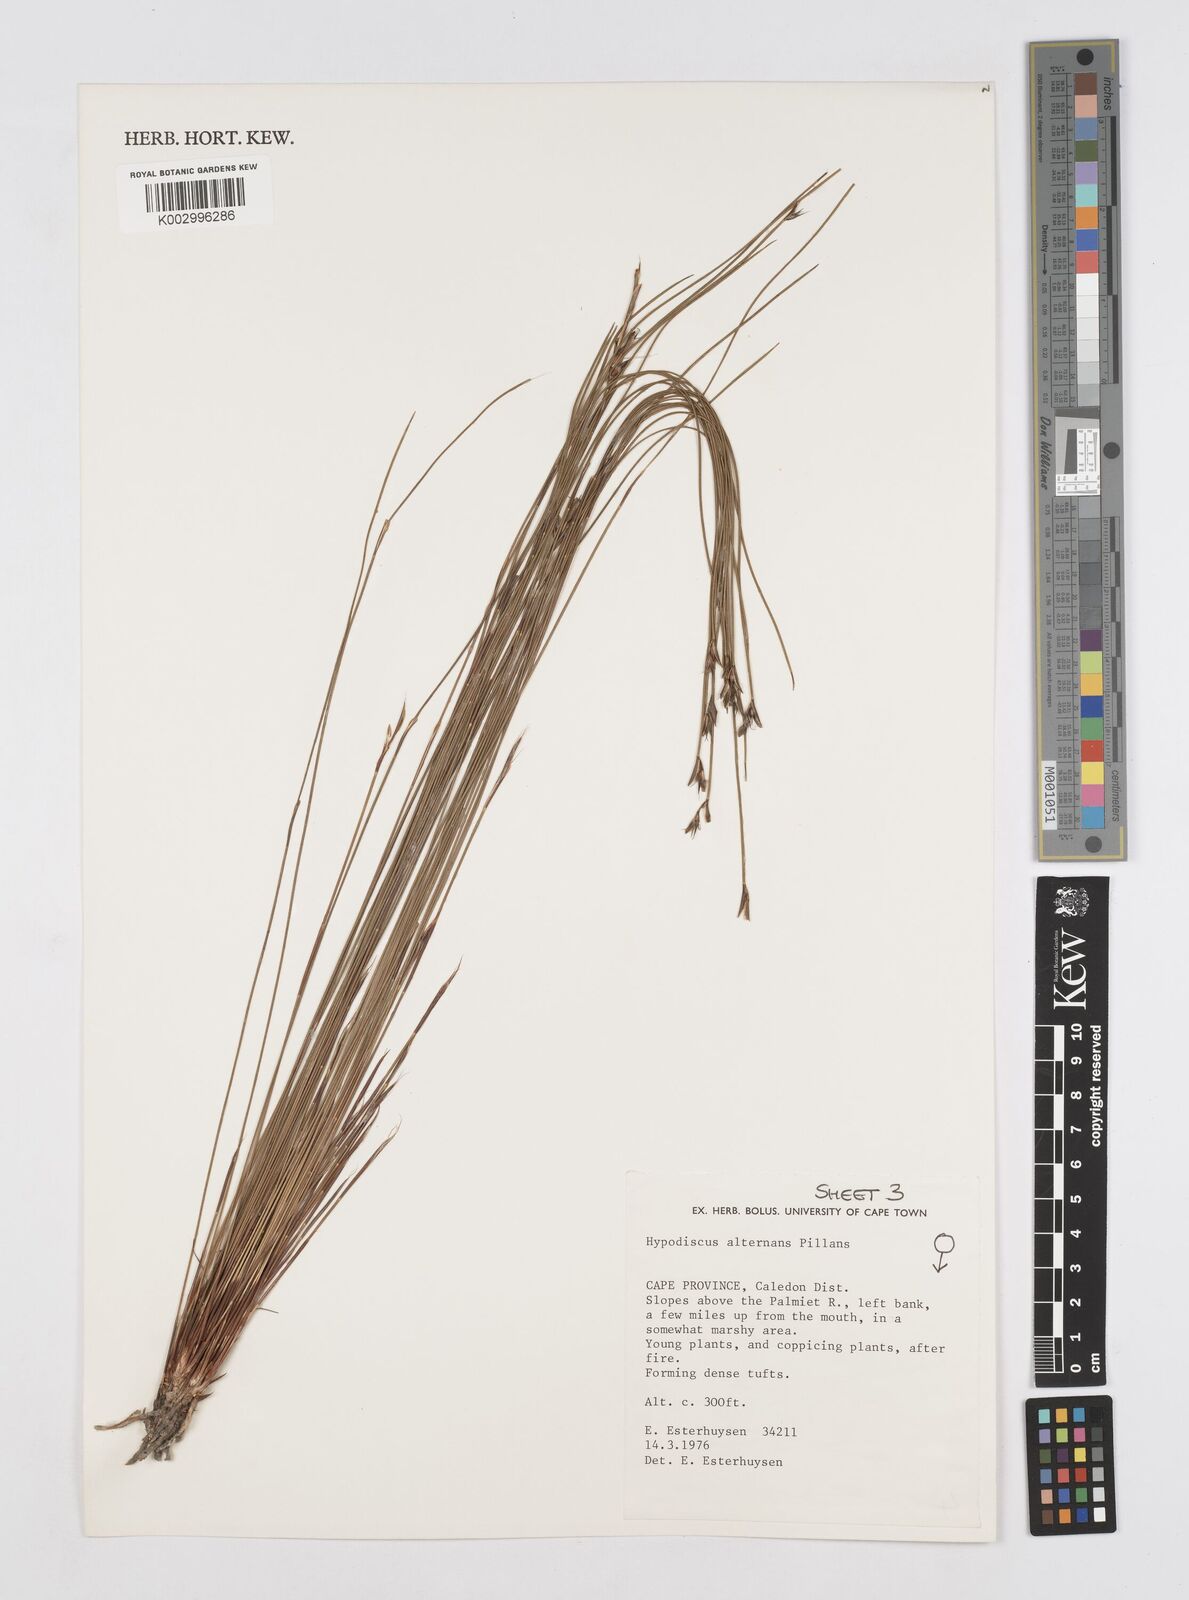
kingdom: Plantae
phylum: Tracheophyta
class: Liliopsida
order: Poales
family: Restionaceae
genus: Hypodiscus
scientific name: Hypodiscus alternans
